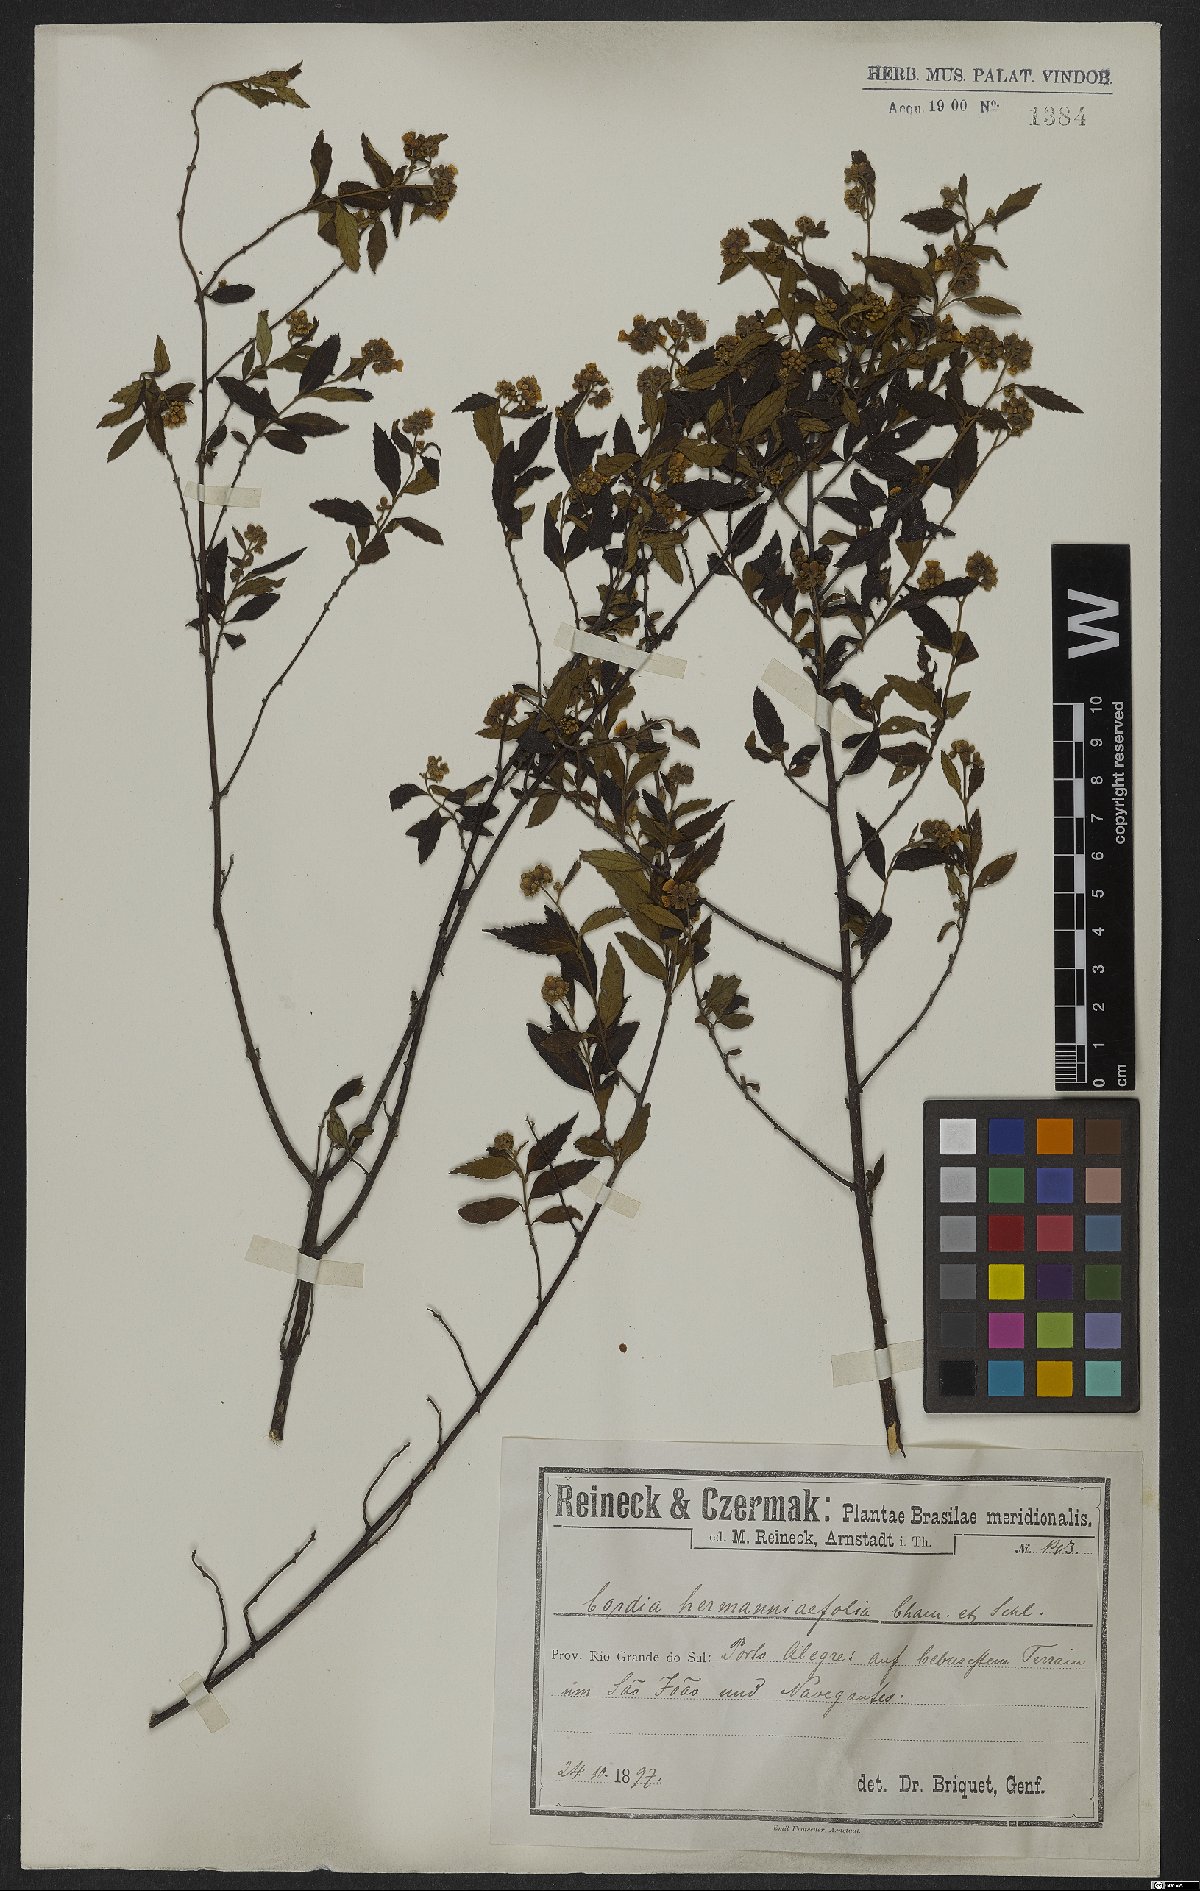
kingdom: Plantae
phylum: Tracheophyta
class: Magnoliopsida
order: Boraginales
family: Cordiaceae
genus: Varronia
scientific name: Varronia polycephala
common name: Black-sage
